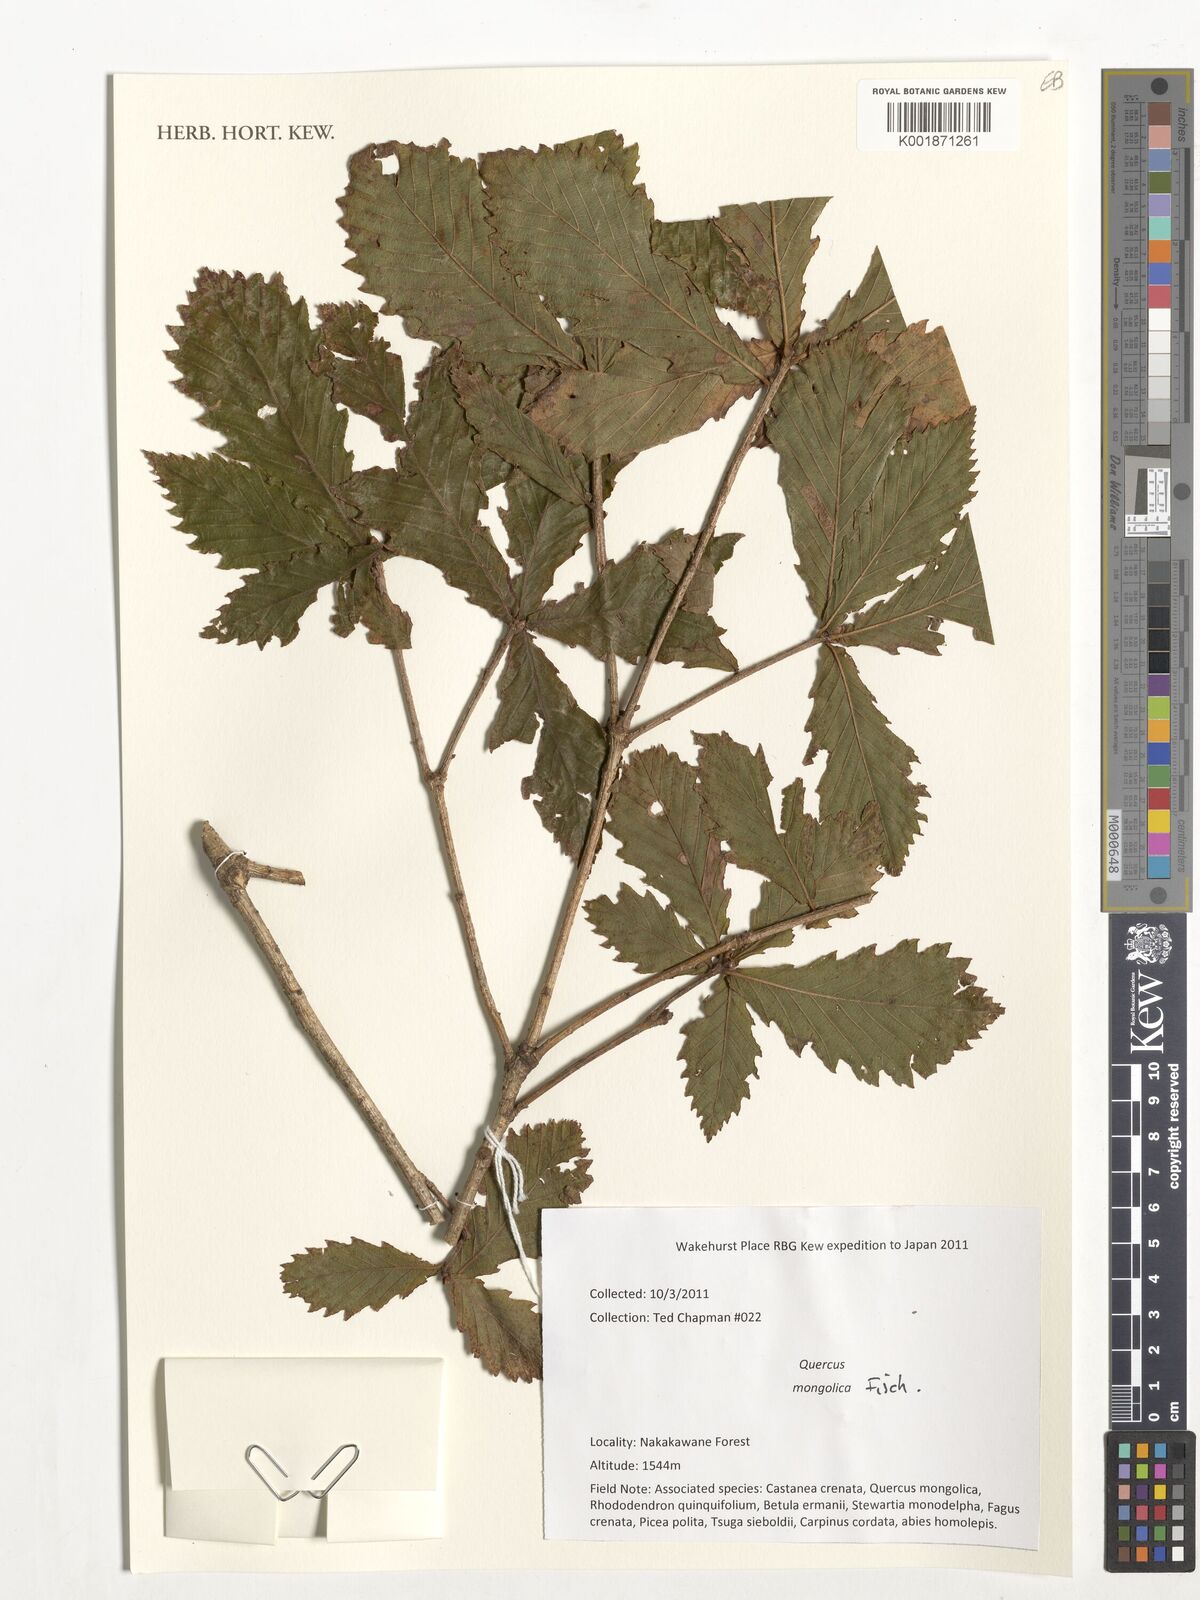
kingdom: Plantae
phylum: Tracheophyta
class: Magnoliopsida
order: Fagales
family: Fagaceae
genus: Quercus
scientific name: Quercus mongolica
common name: Mongolian oak
